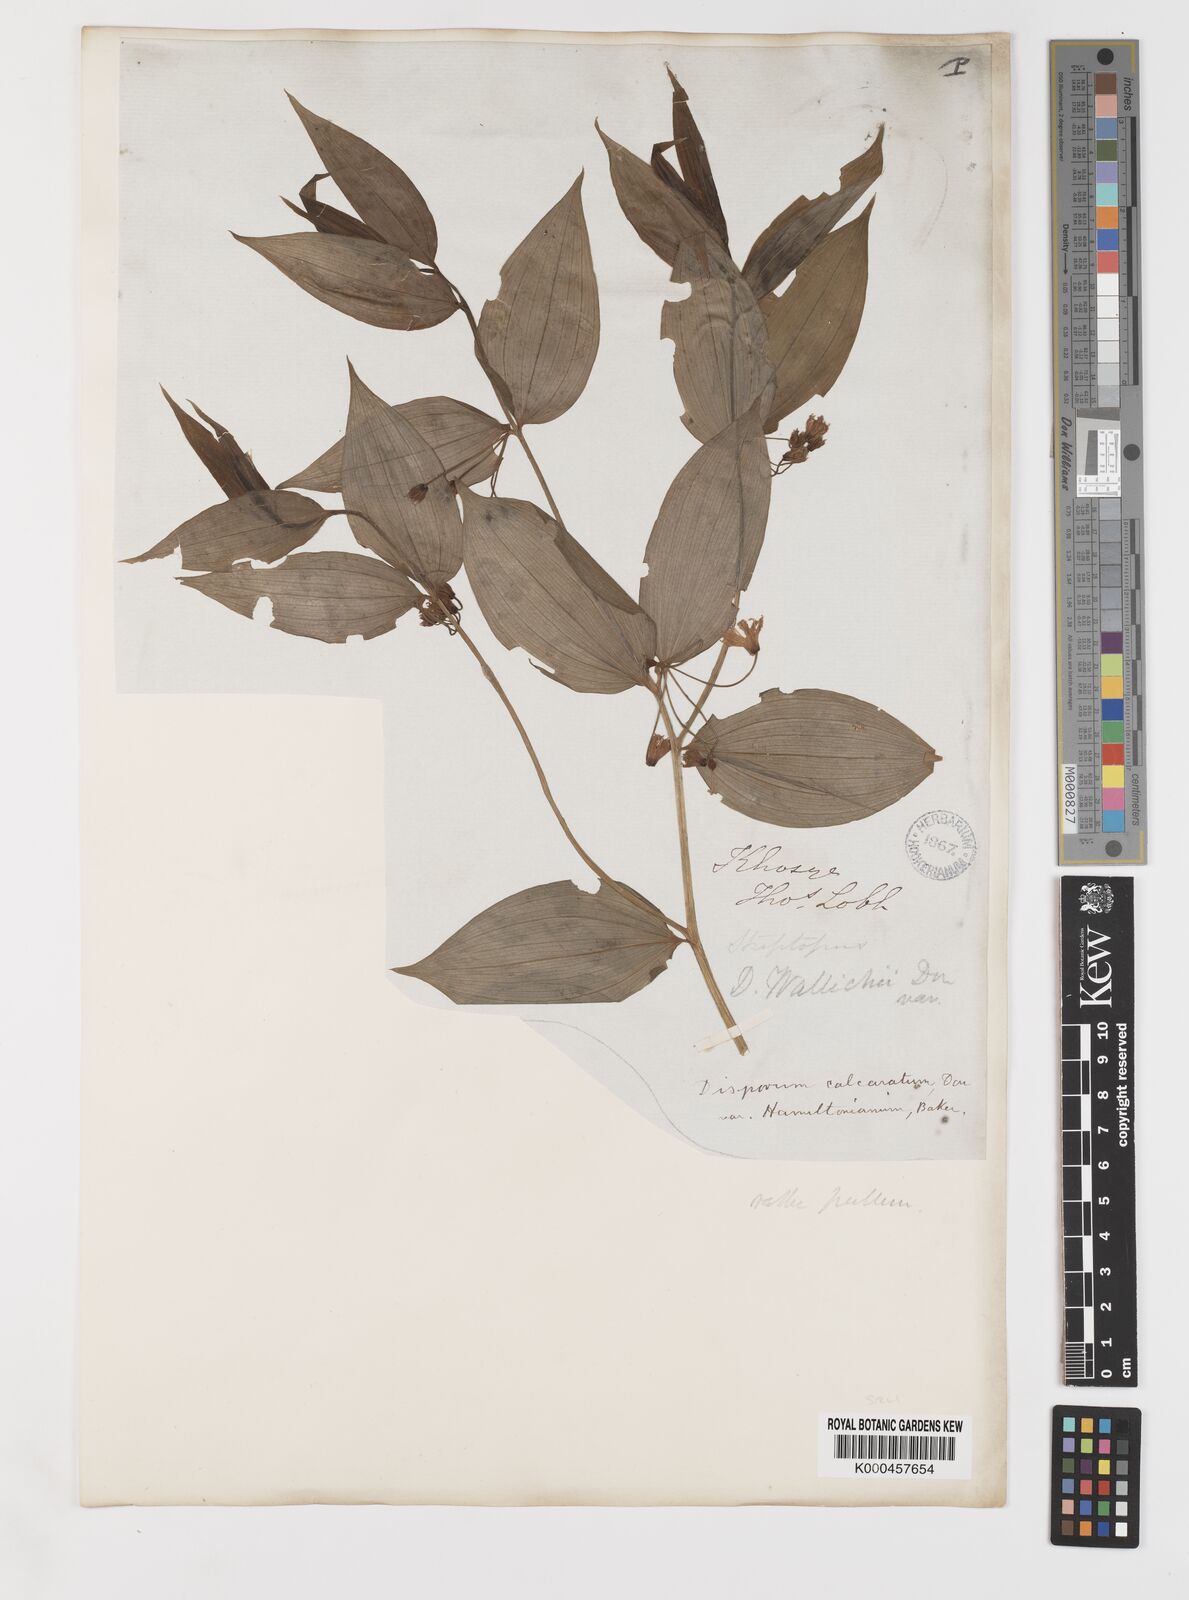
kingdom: Plantae
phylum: Tracheophyta
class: Liliopsida
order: Liliales
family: Colchicaceae
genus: Disporum
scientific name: Disporum calcaratum
